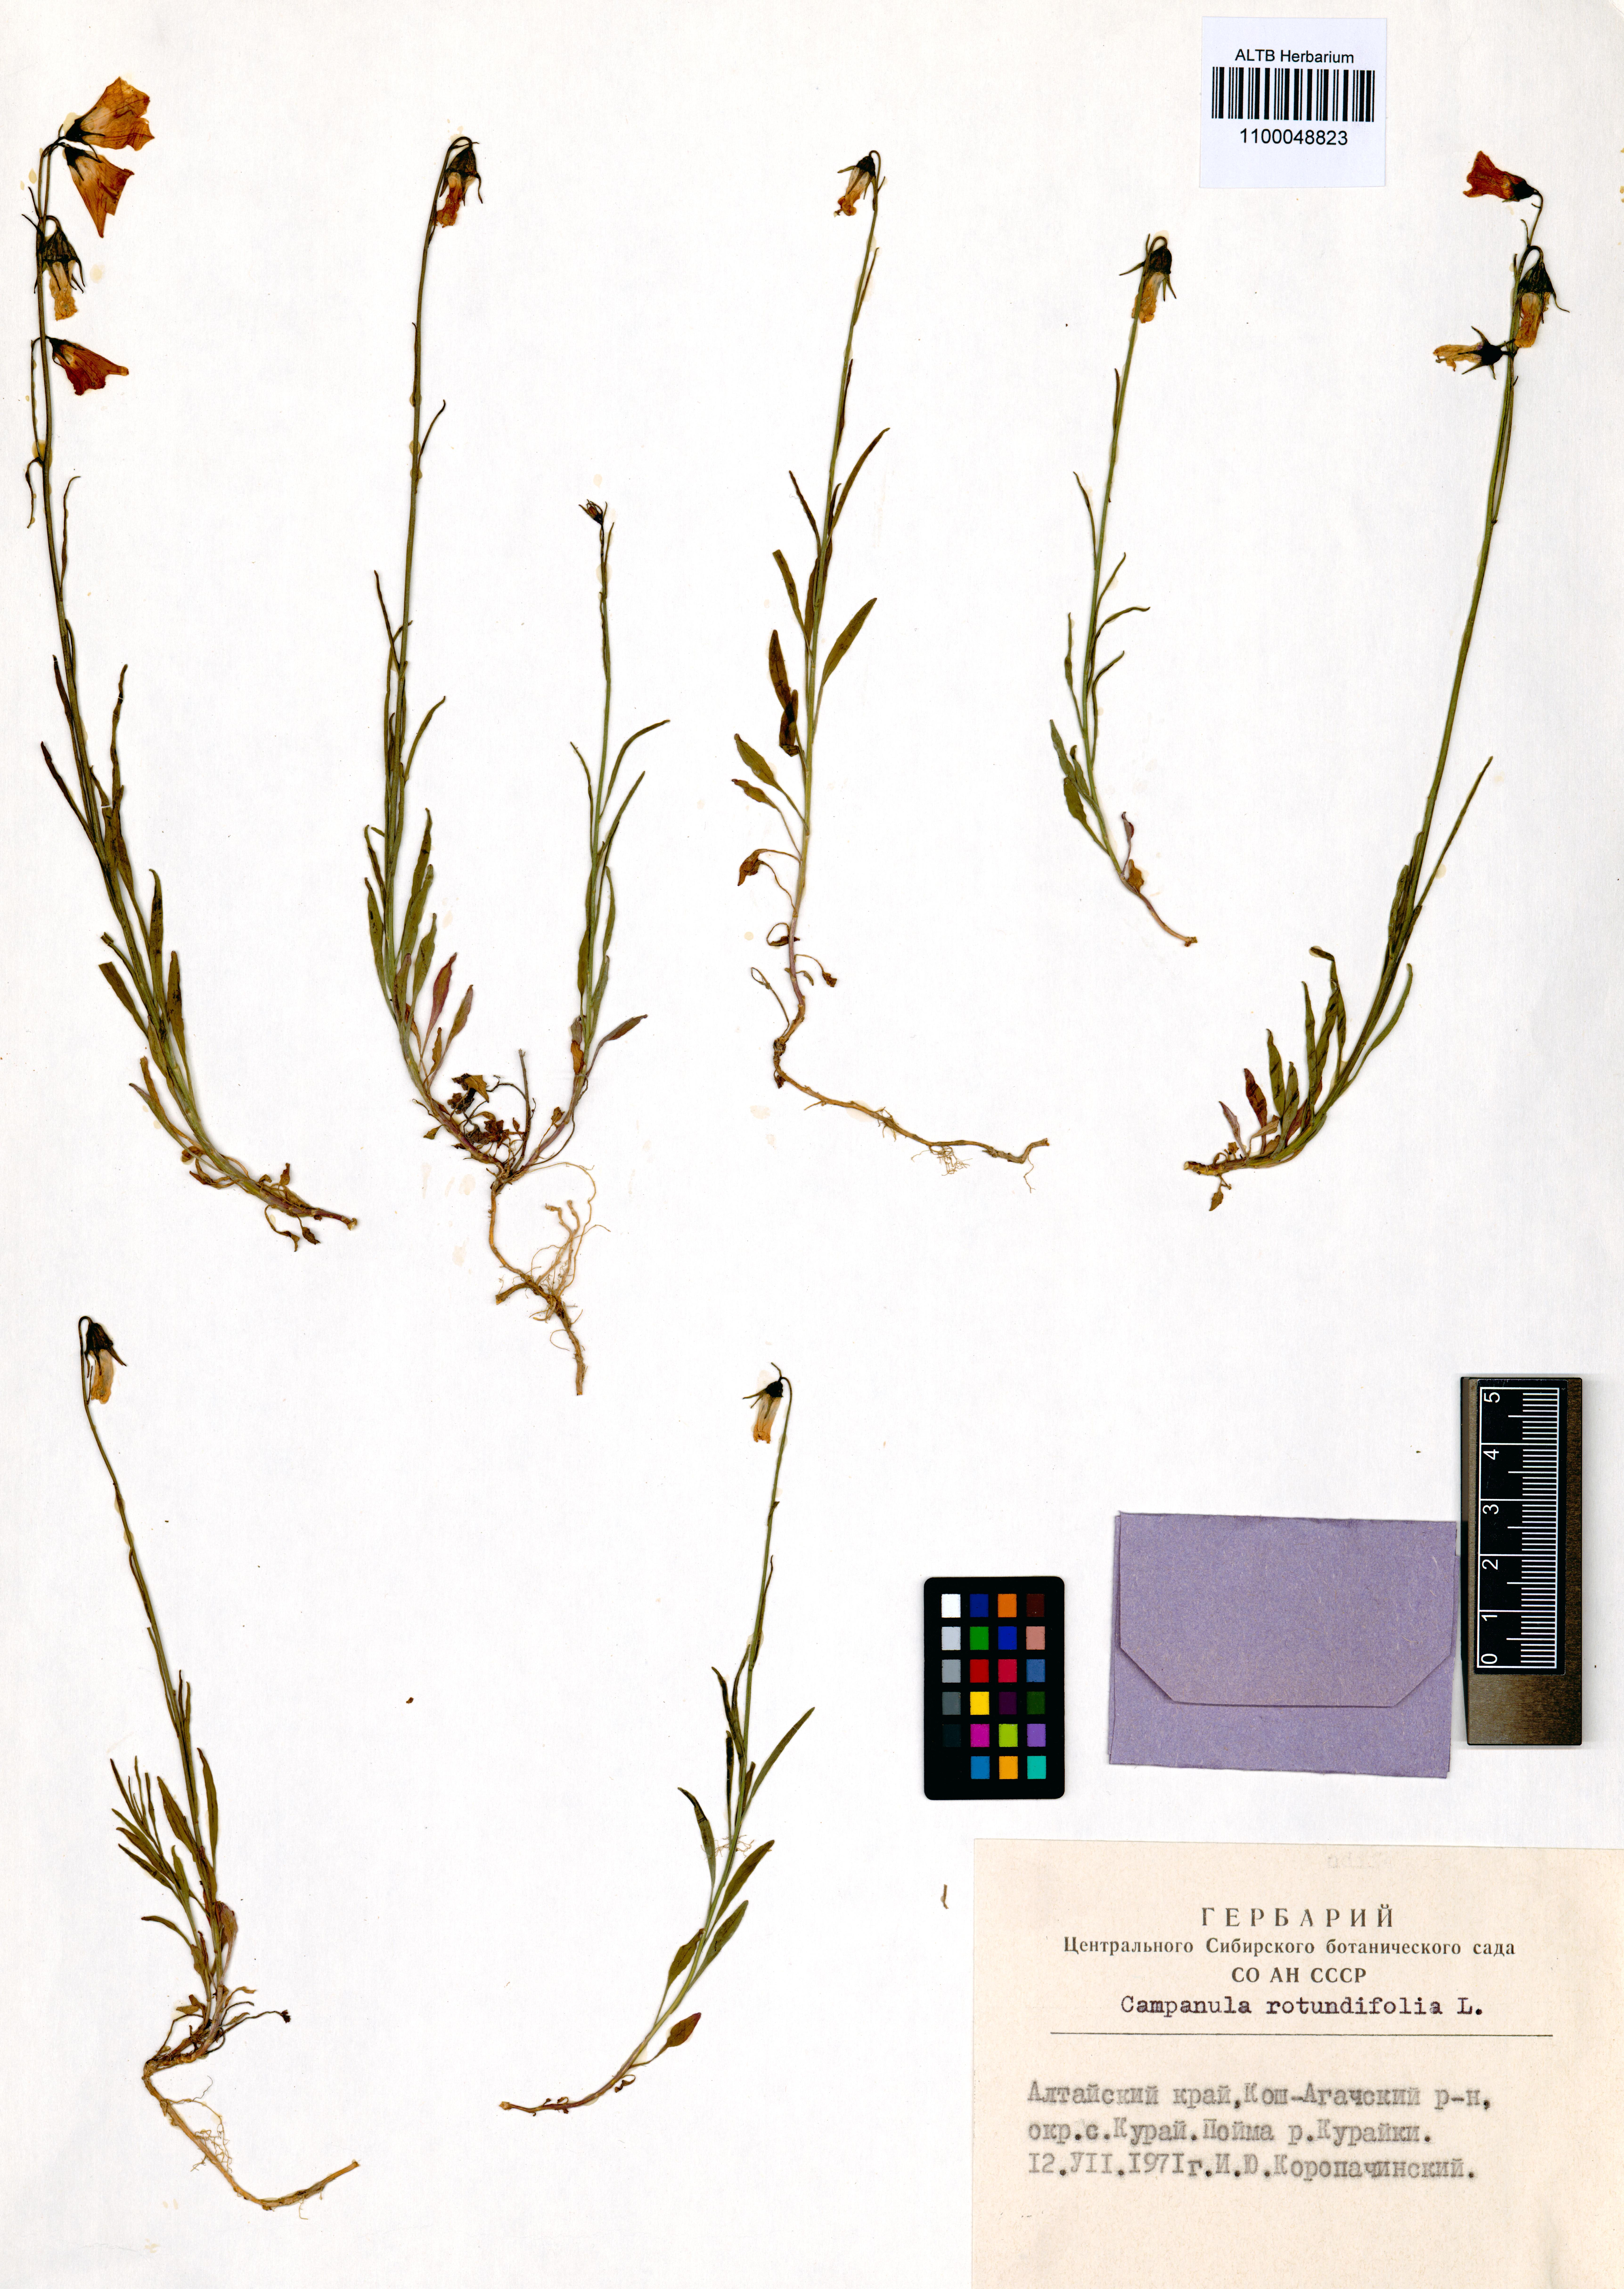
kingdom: Plantae
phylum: Tracheophyta
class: Magnoliopsida
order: Asterales
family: Campanulaceae
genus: Campanula
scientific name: Campanula rotundifolia
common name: Harebell
